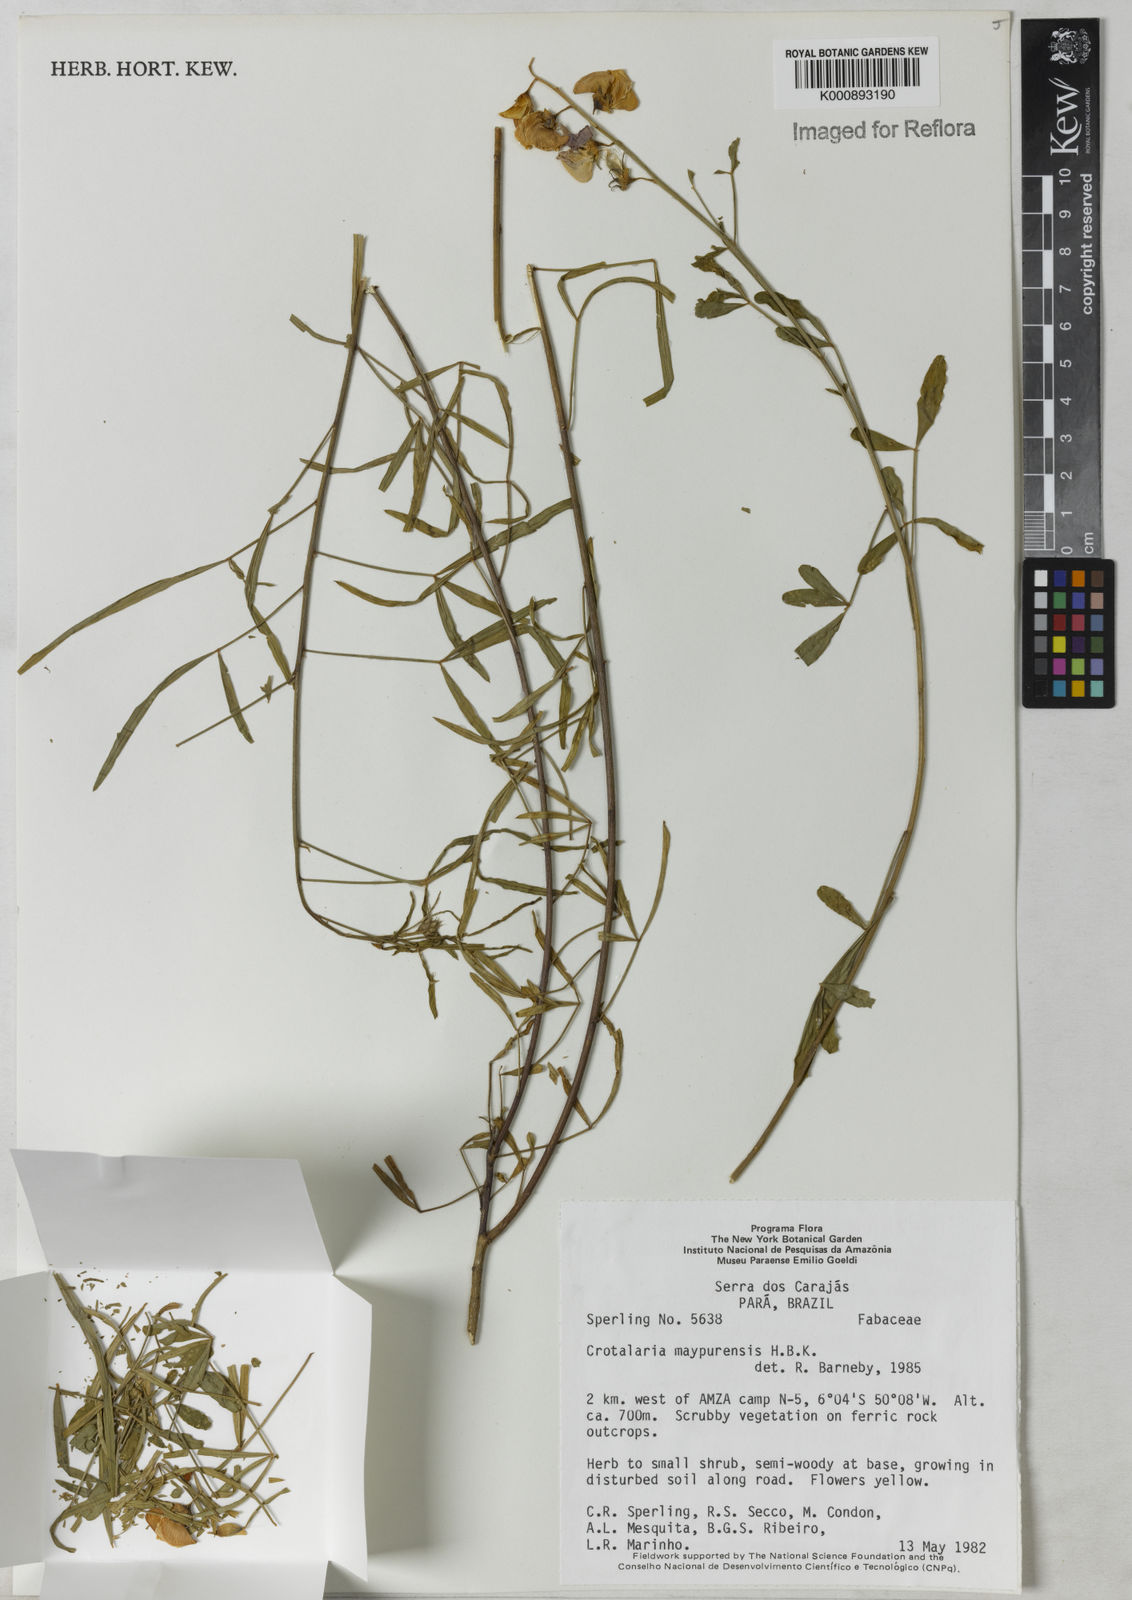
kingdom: Plantae
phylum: Tracheophyta
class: Magnoliopsida
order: Fabales
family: Fabaceae
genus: Crotalaria
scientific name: Crotalaria maypurensis
